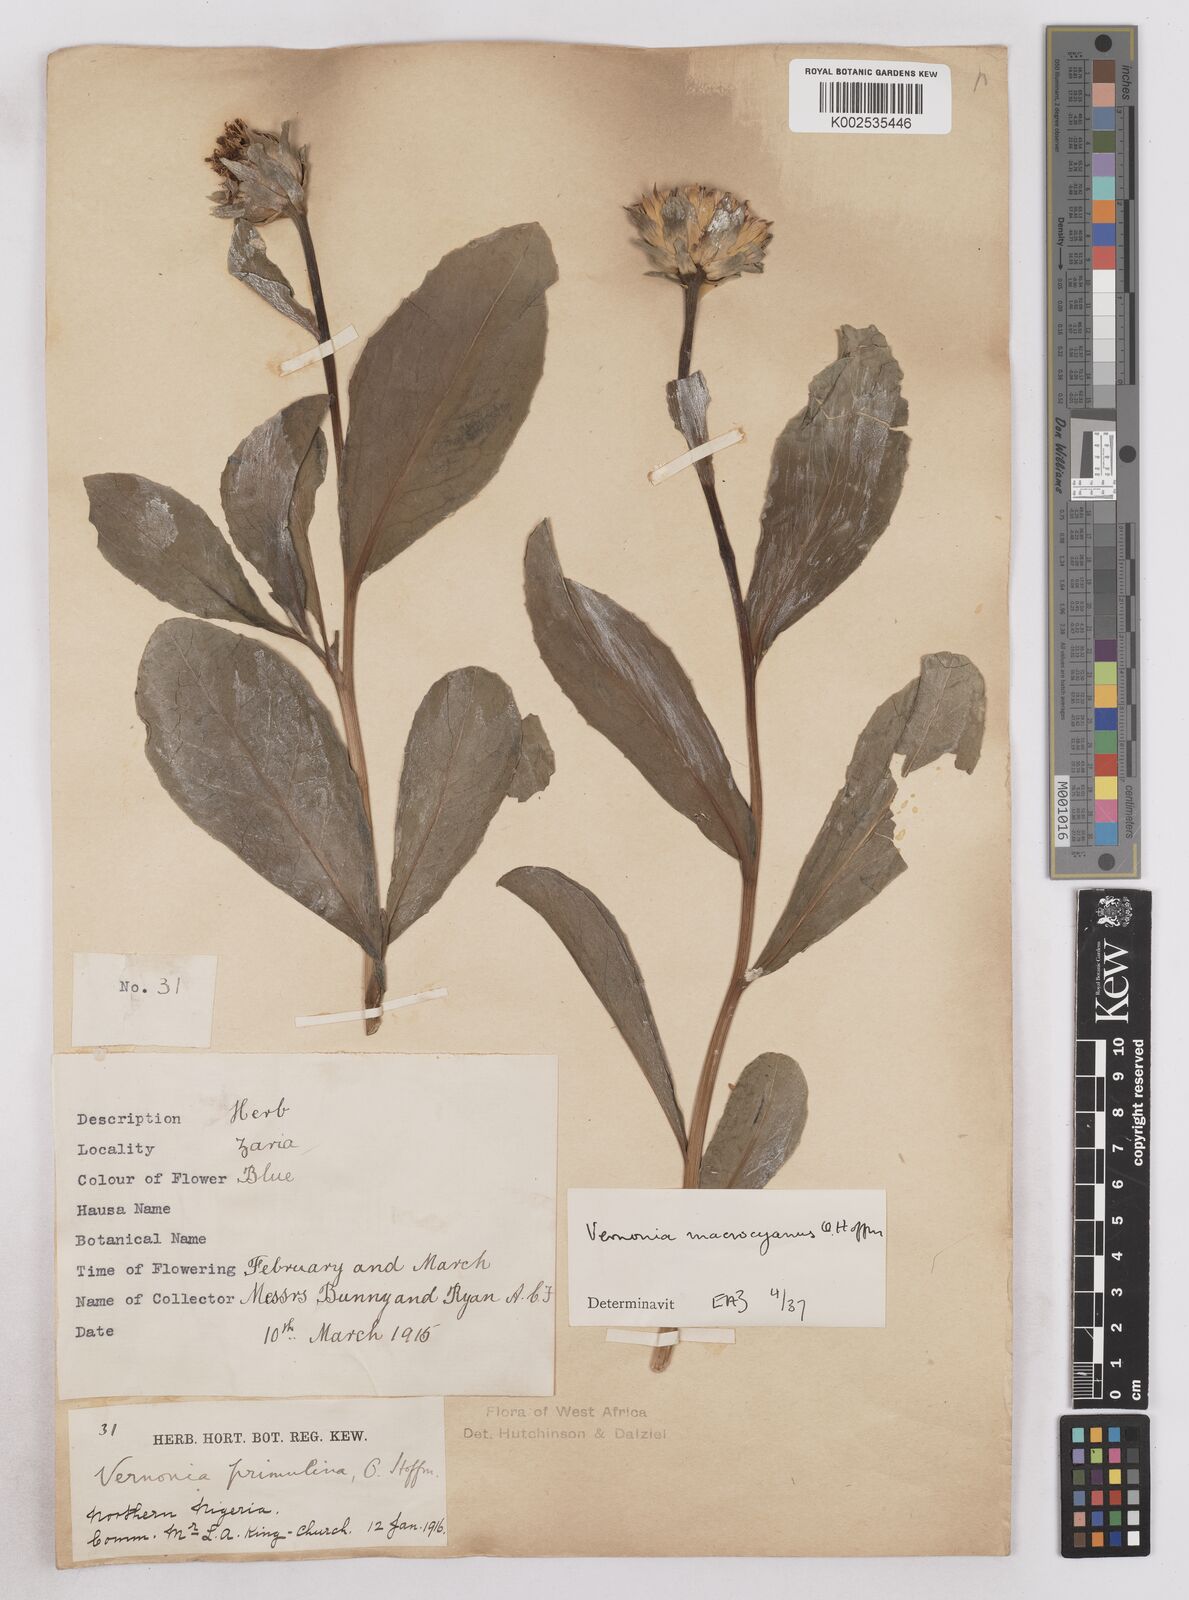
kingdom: Plantae
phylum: Tracheophyta
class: Magnoliopsida
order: Asterales
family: Asteraceae
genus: Linzia
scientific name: Linzia gerberiformis
